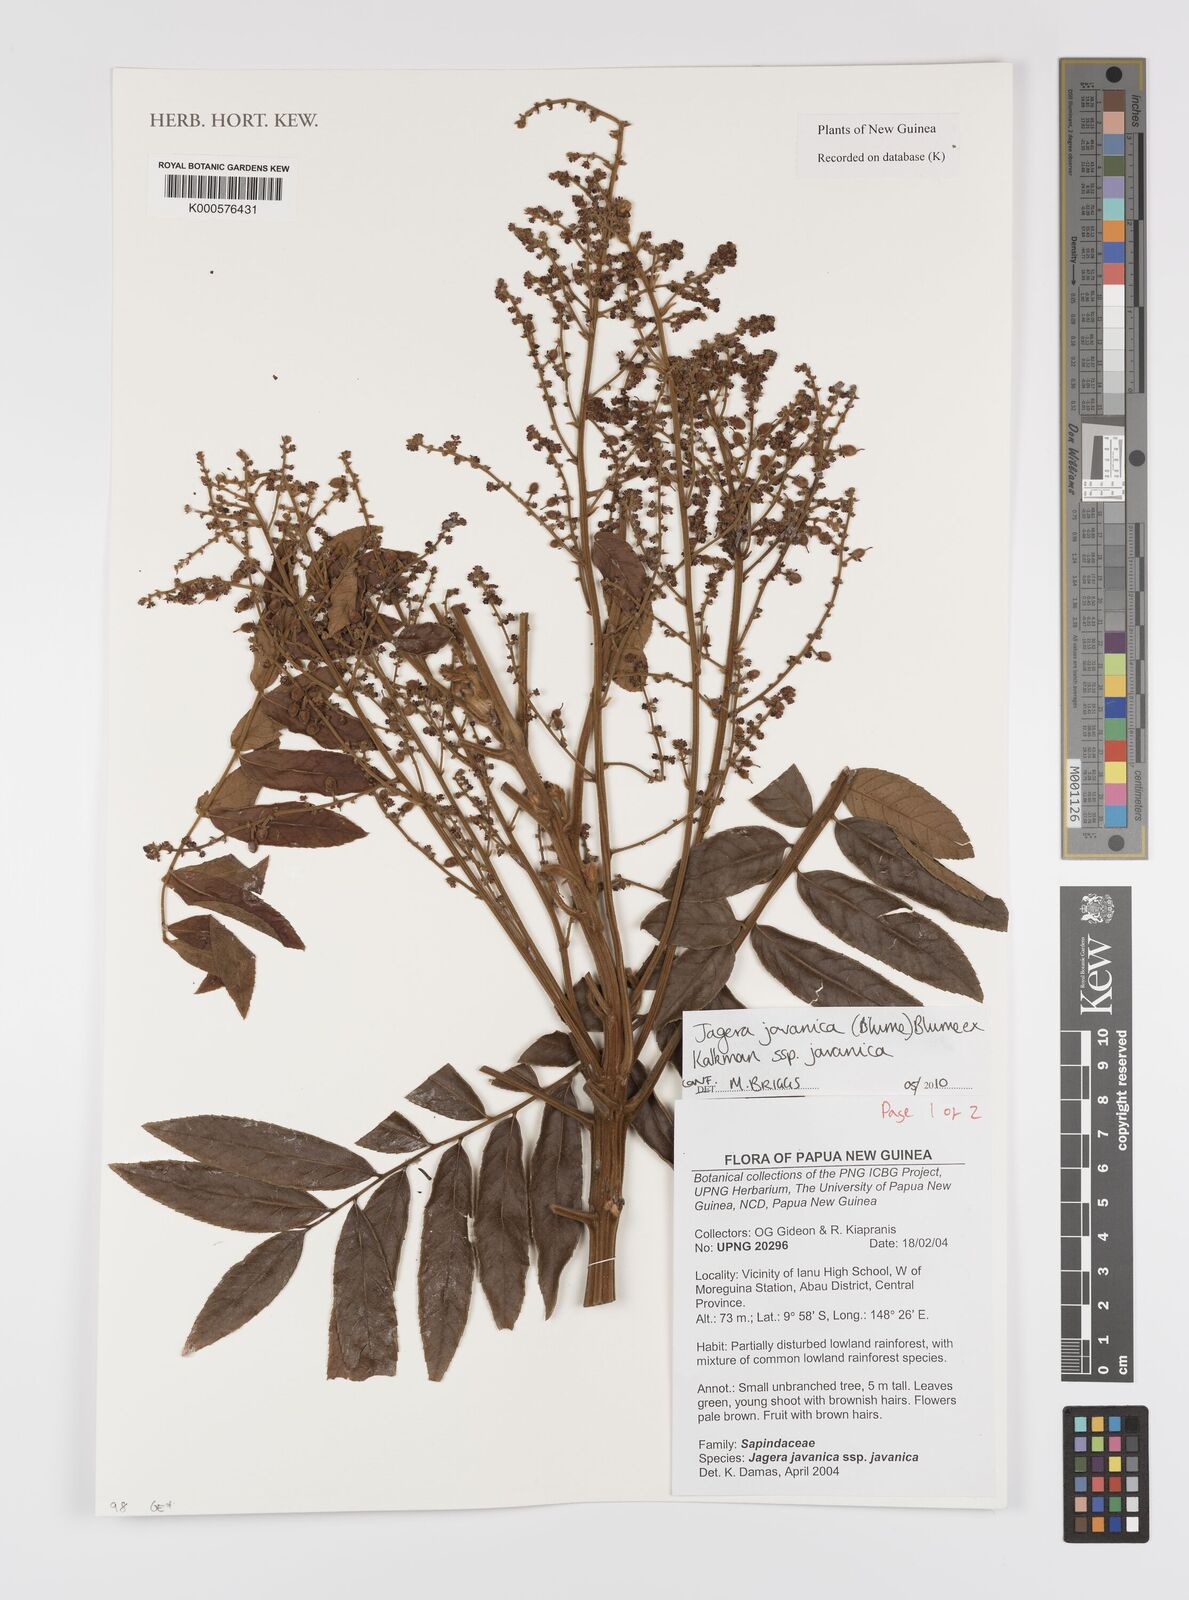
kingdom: Plantae
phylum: Tracheophyta
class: Magnoliopsida
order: Sapindales
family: Sapindaceae
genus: Jagera
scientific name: Jagera javanica
